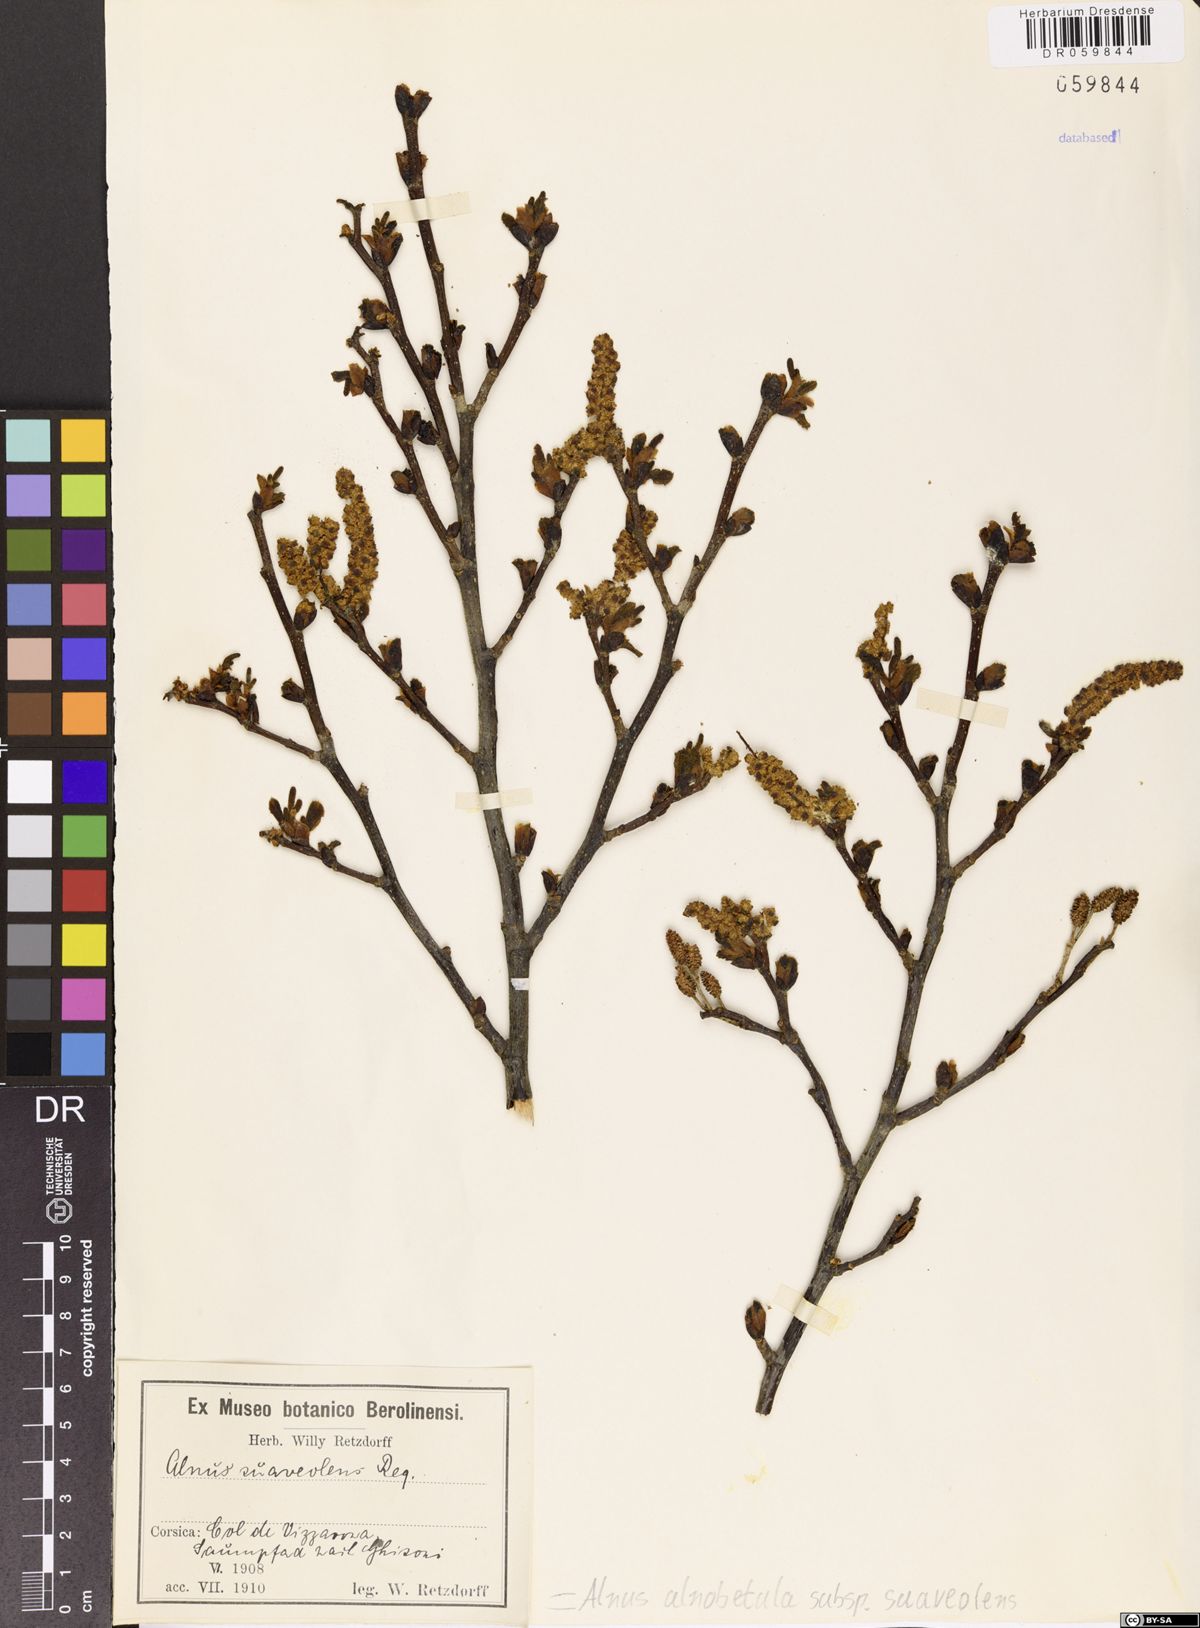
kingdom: Plantae
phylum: Tracheophyta
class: Magnoliopsida
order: Fagales
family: Betulaceae
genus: Alnus
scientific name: Alnus alnobetula
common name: Green alder
